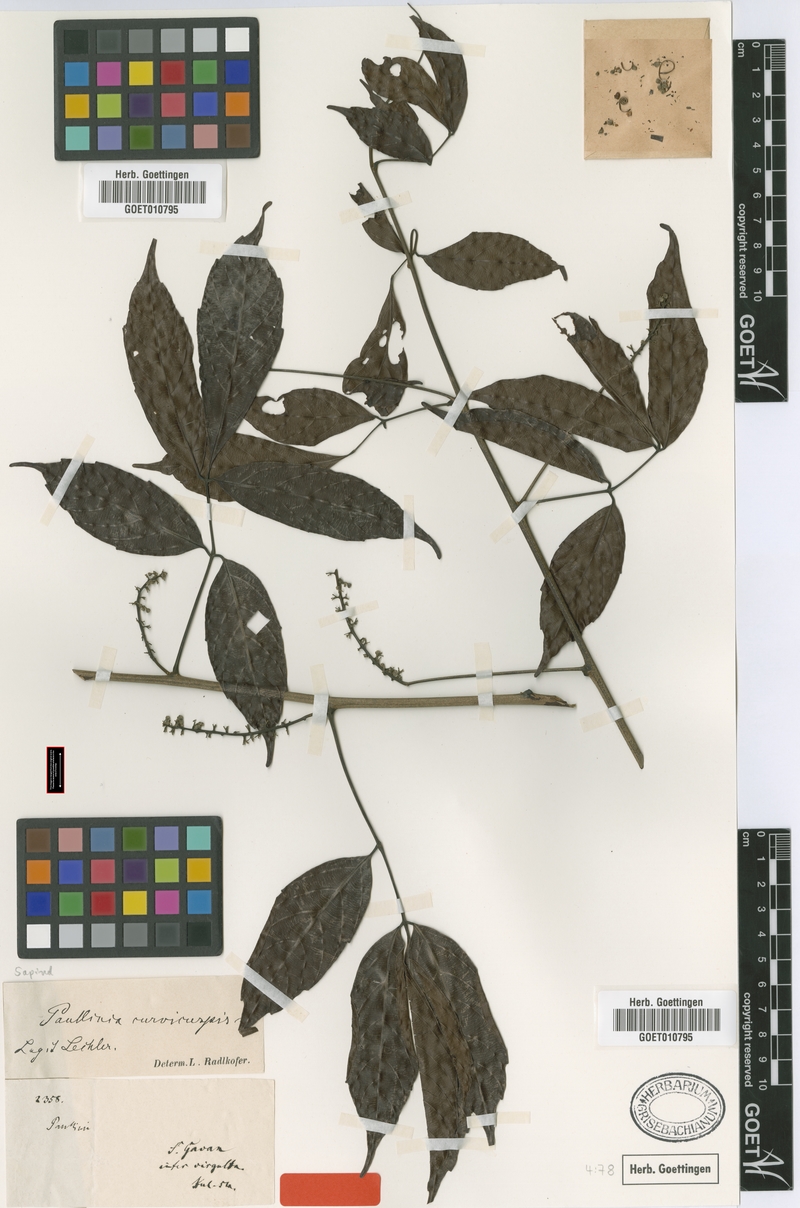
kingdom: Plantae
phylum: Tracheophyta
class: Magnoliopsida
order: Sapindales
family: Sapindaceae
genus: Paullinia
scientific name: Paullinia curvicuspis
